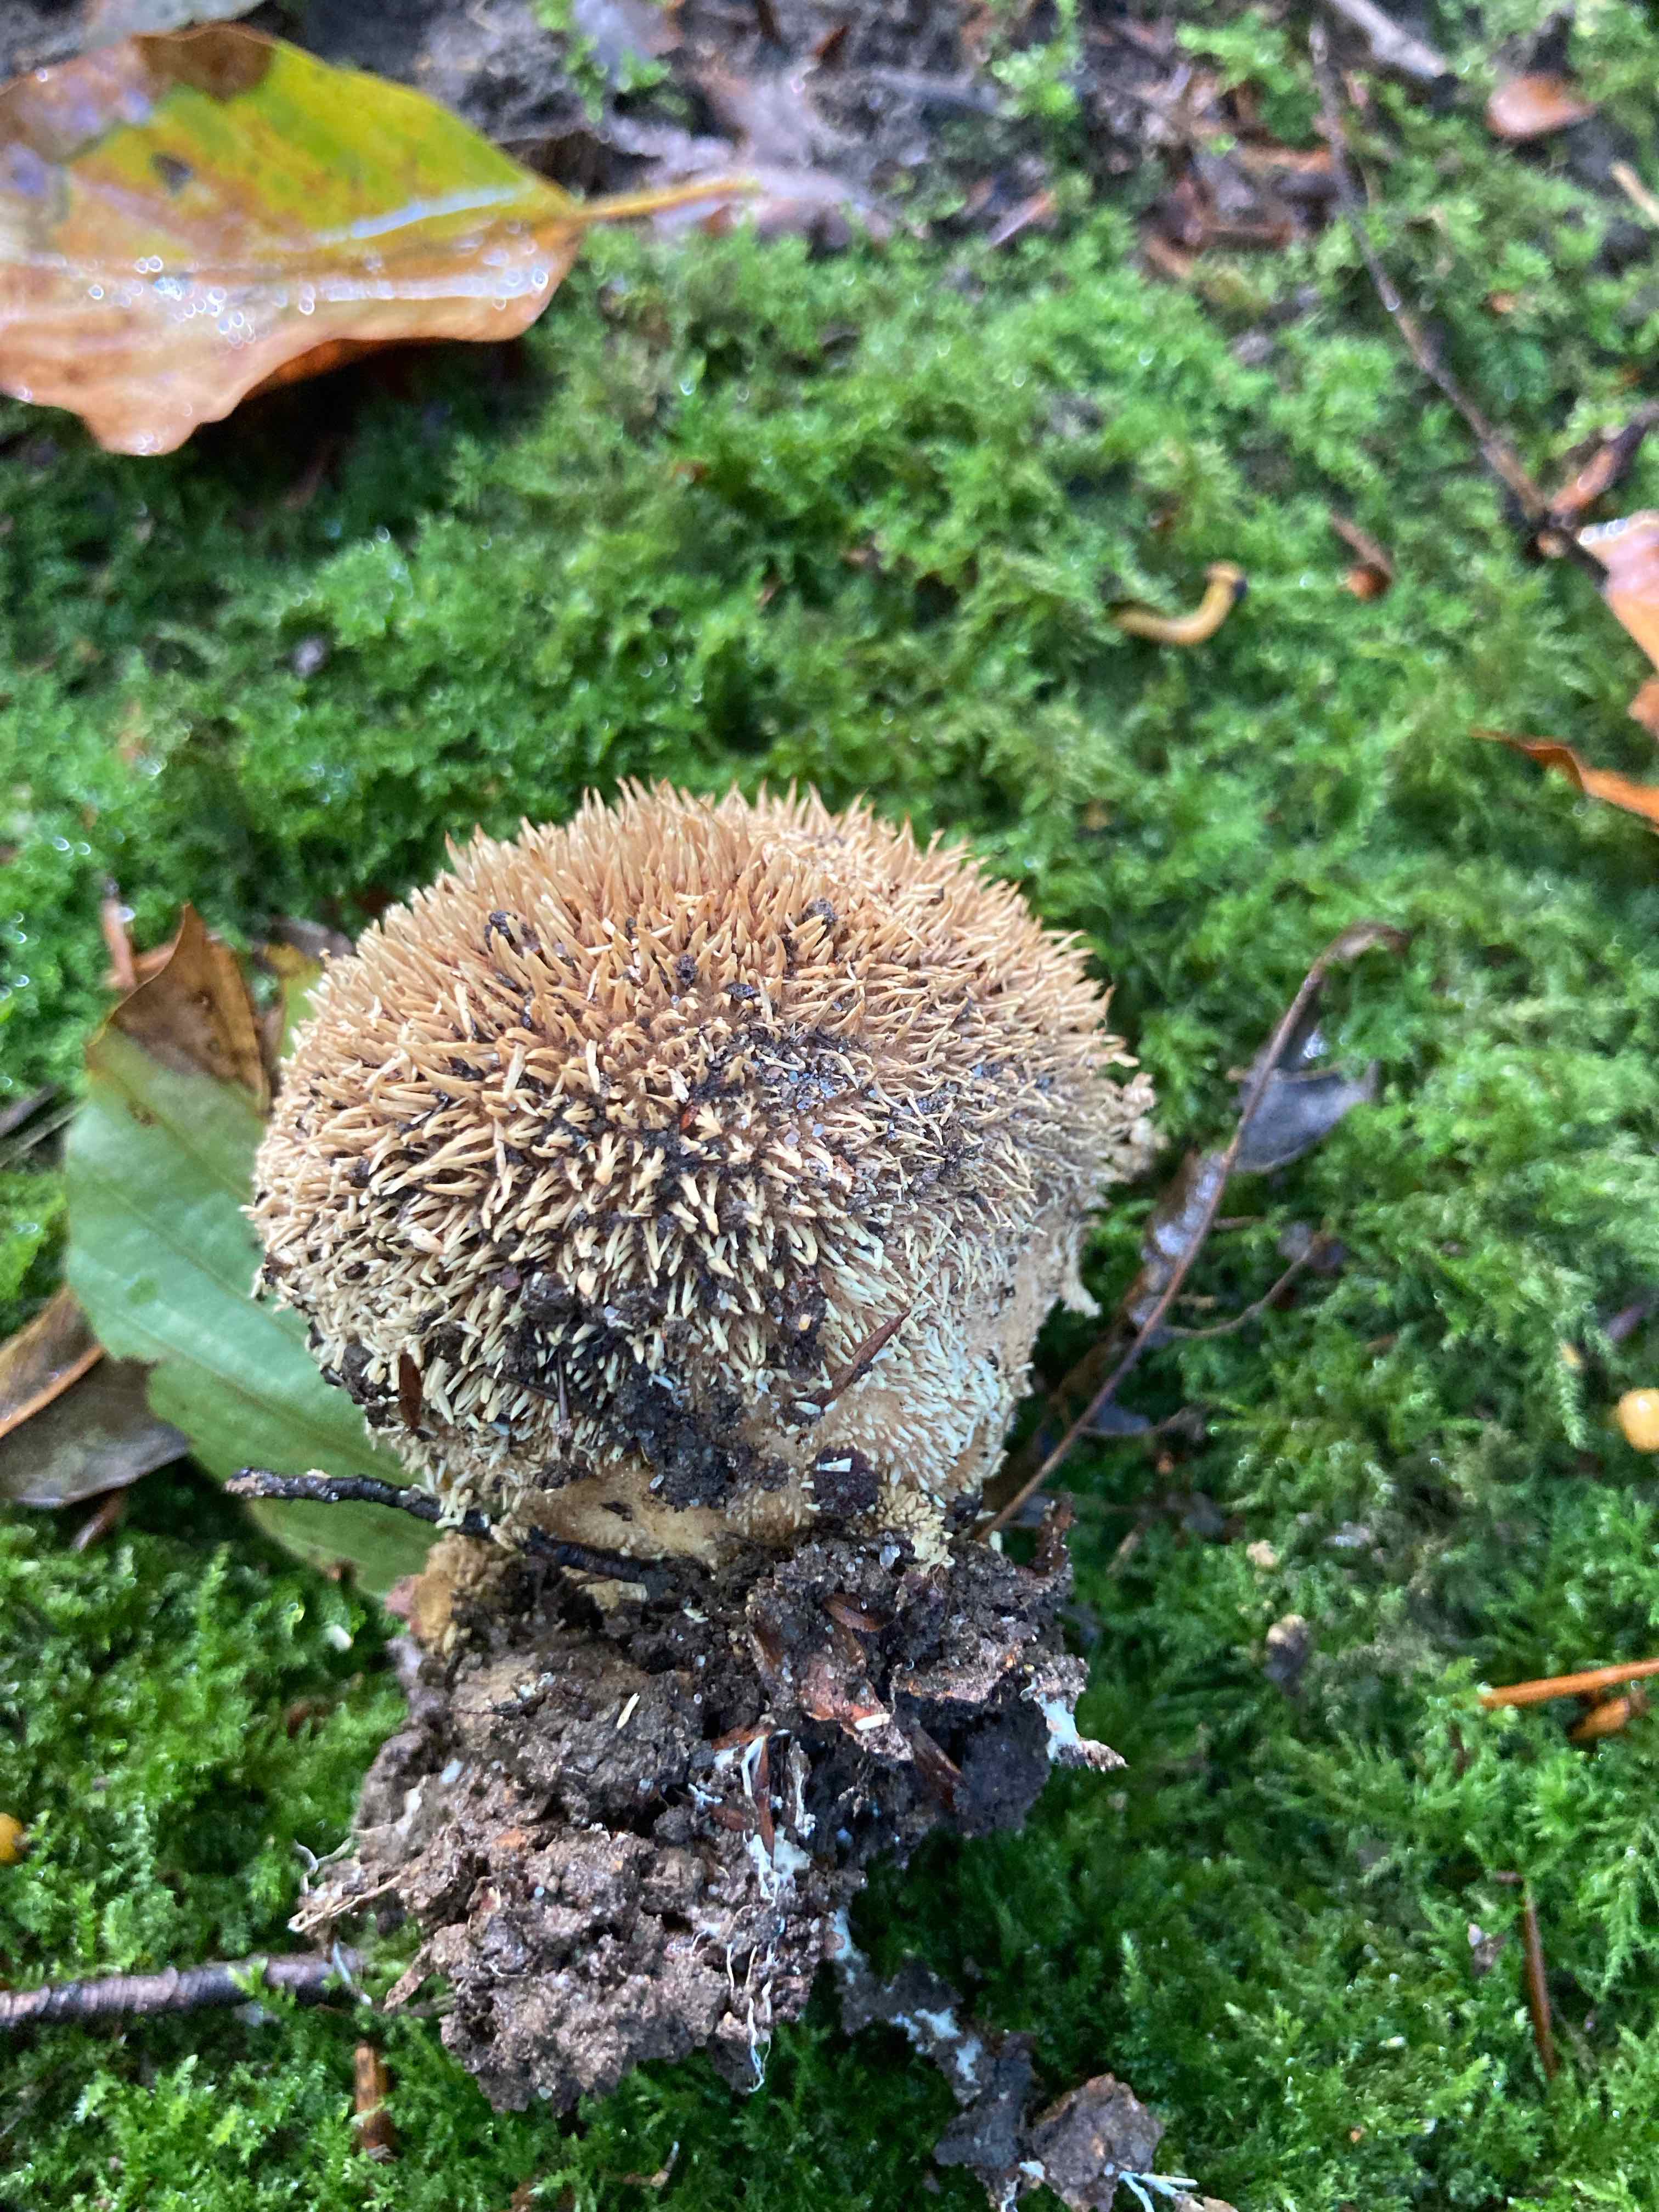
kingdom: Fungi
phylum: Basidiomycota
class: Agaricomycetes
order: Agaricales
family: Lycoperdaceae
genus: Lycoperdon
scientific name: Lycoperdon echinatum
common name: pindsvine-støvbold
